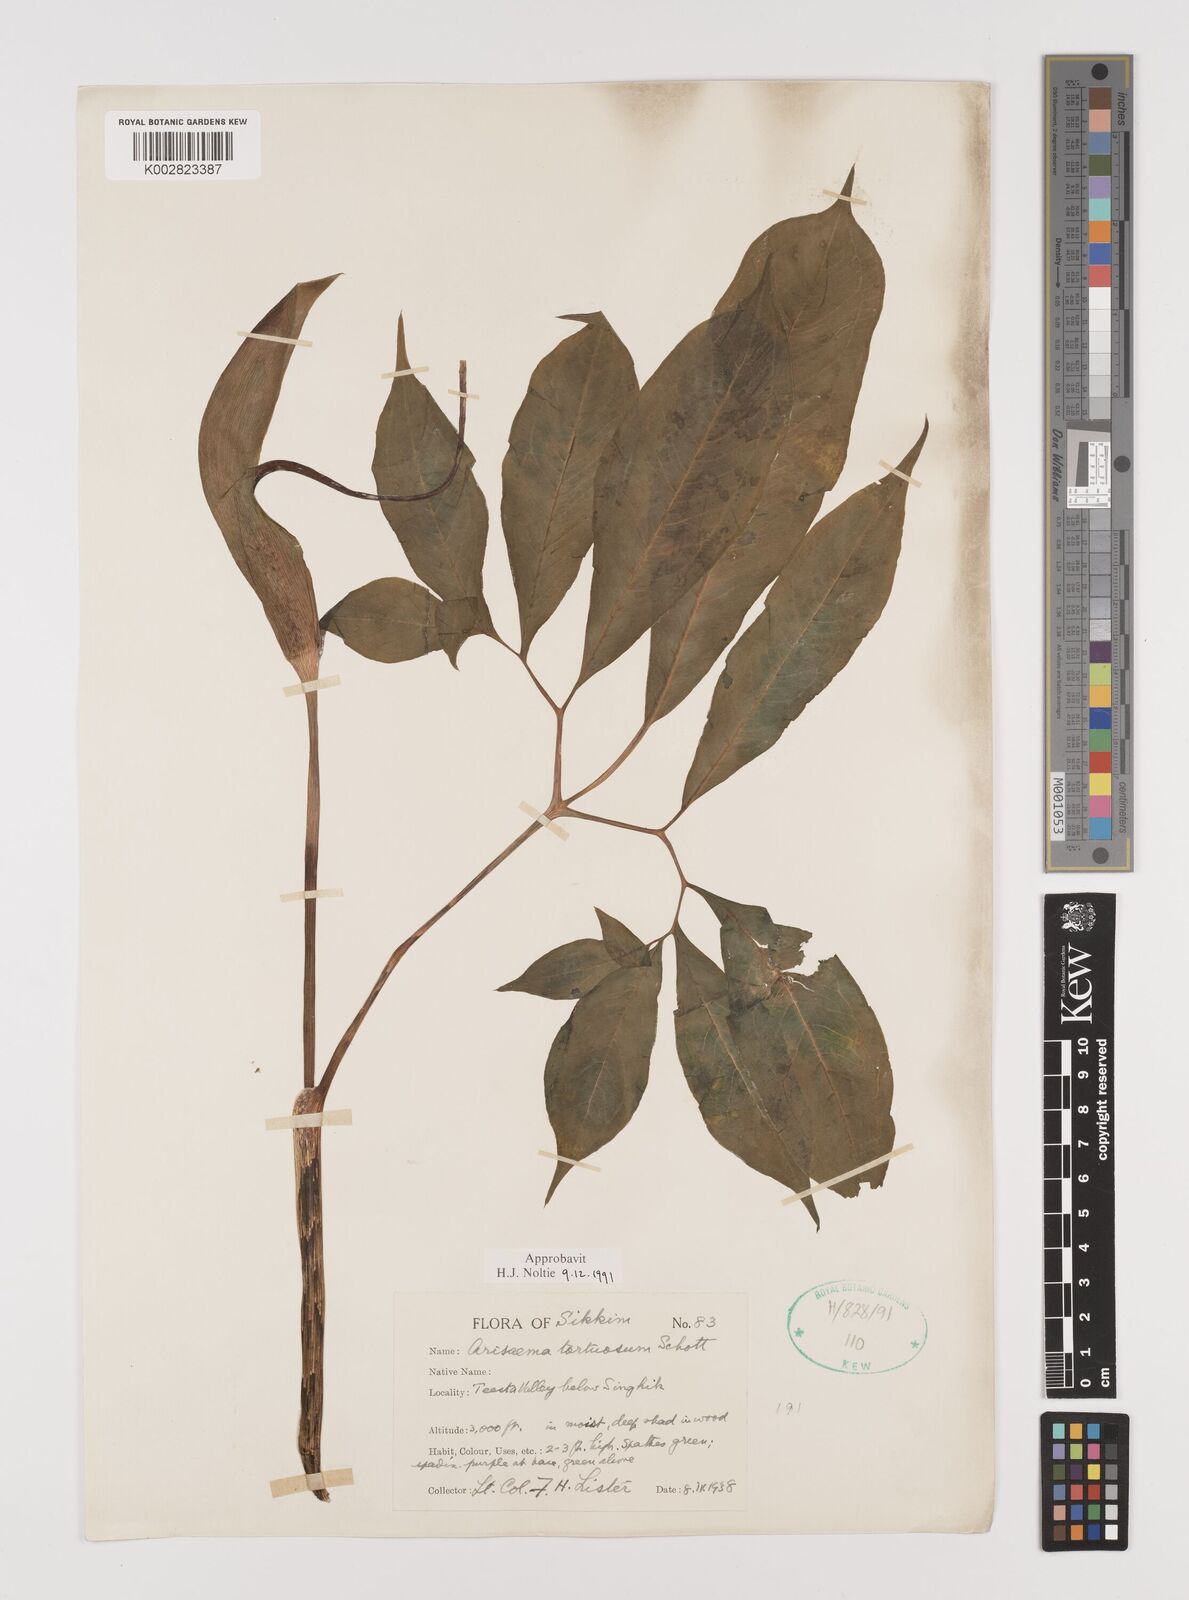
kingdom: Plantae
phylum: Tracheophyta
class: Liliopsida
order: Alismatales
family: Araceae
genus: Arisaema
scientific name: Arisaema tortuosum
